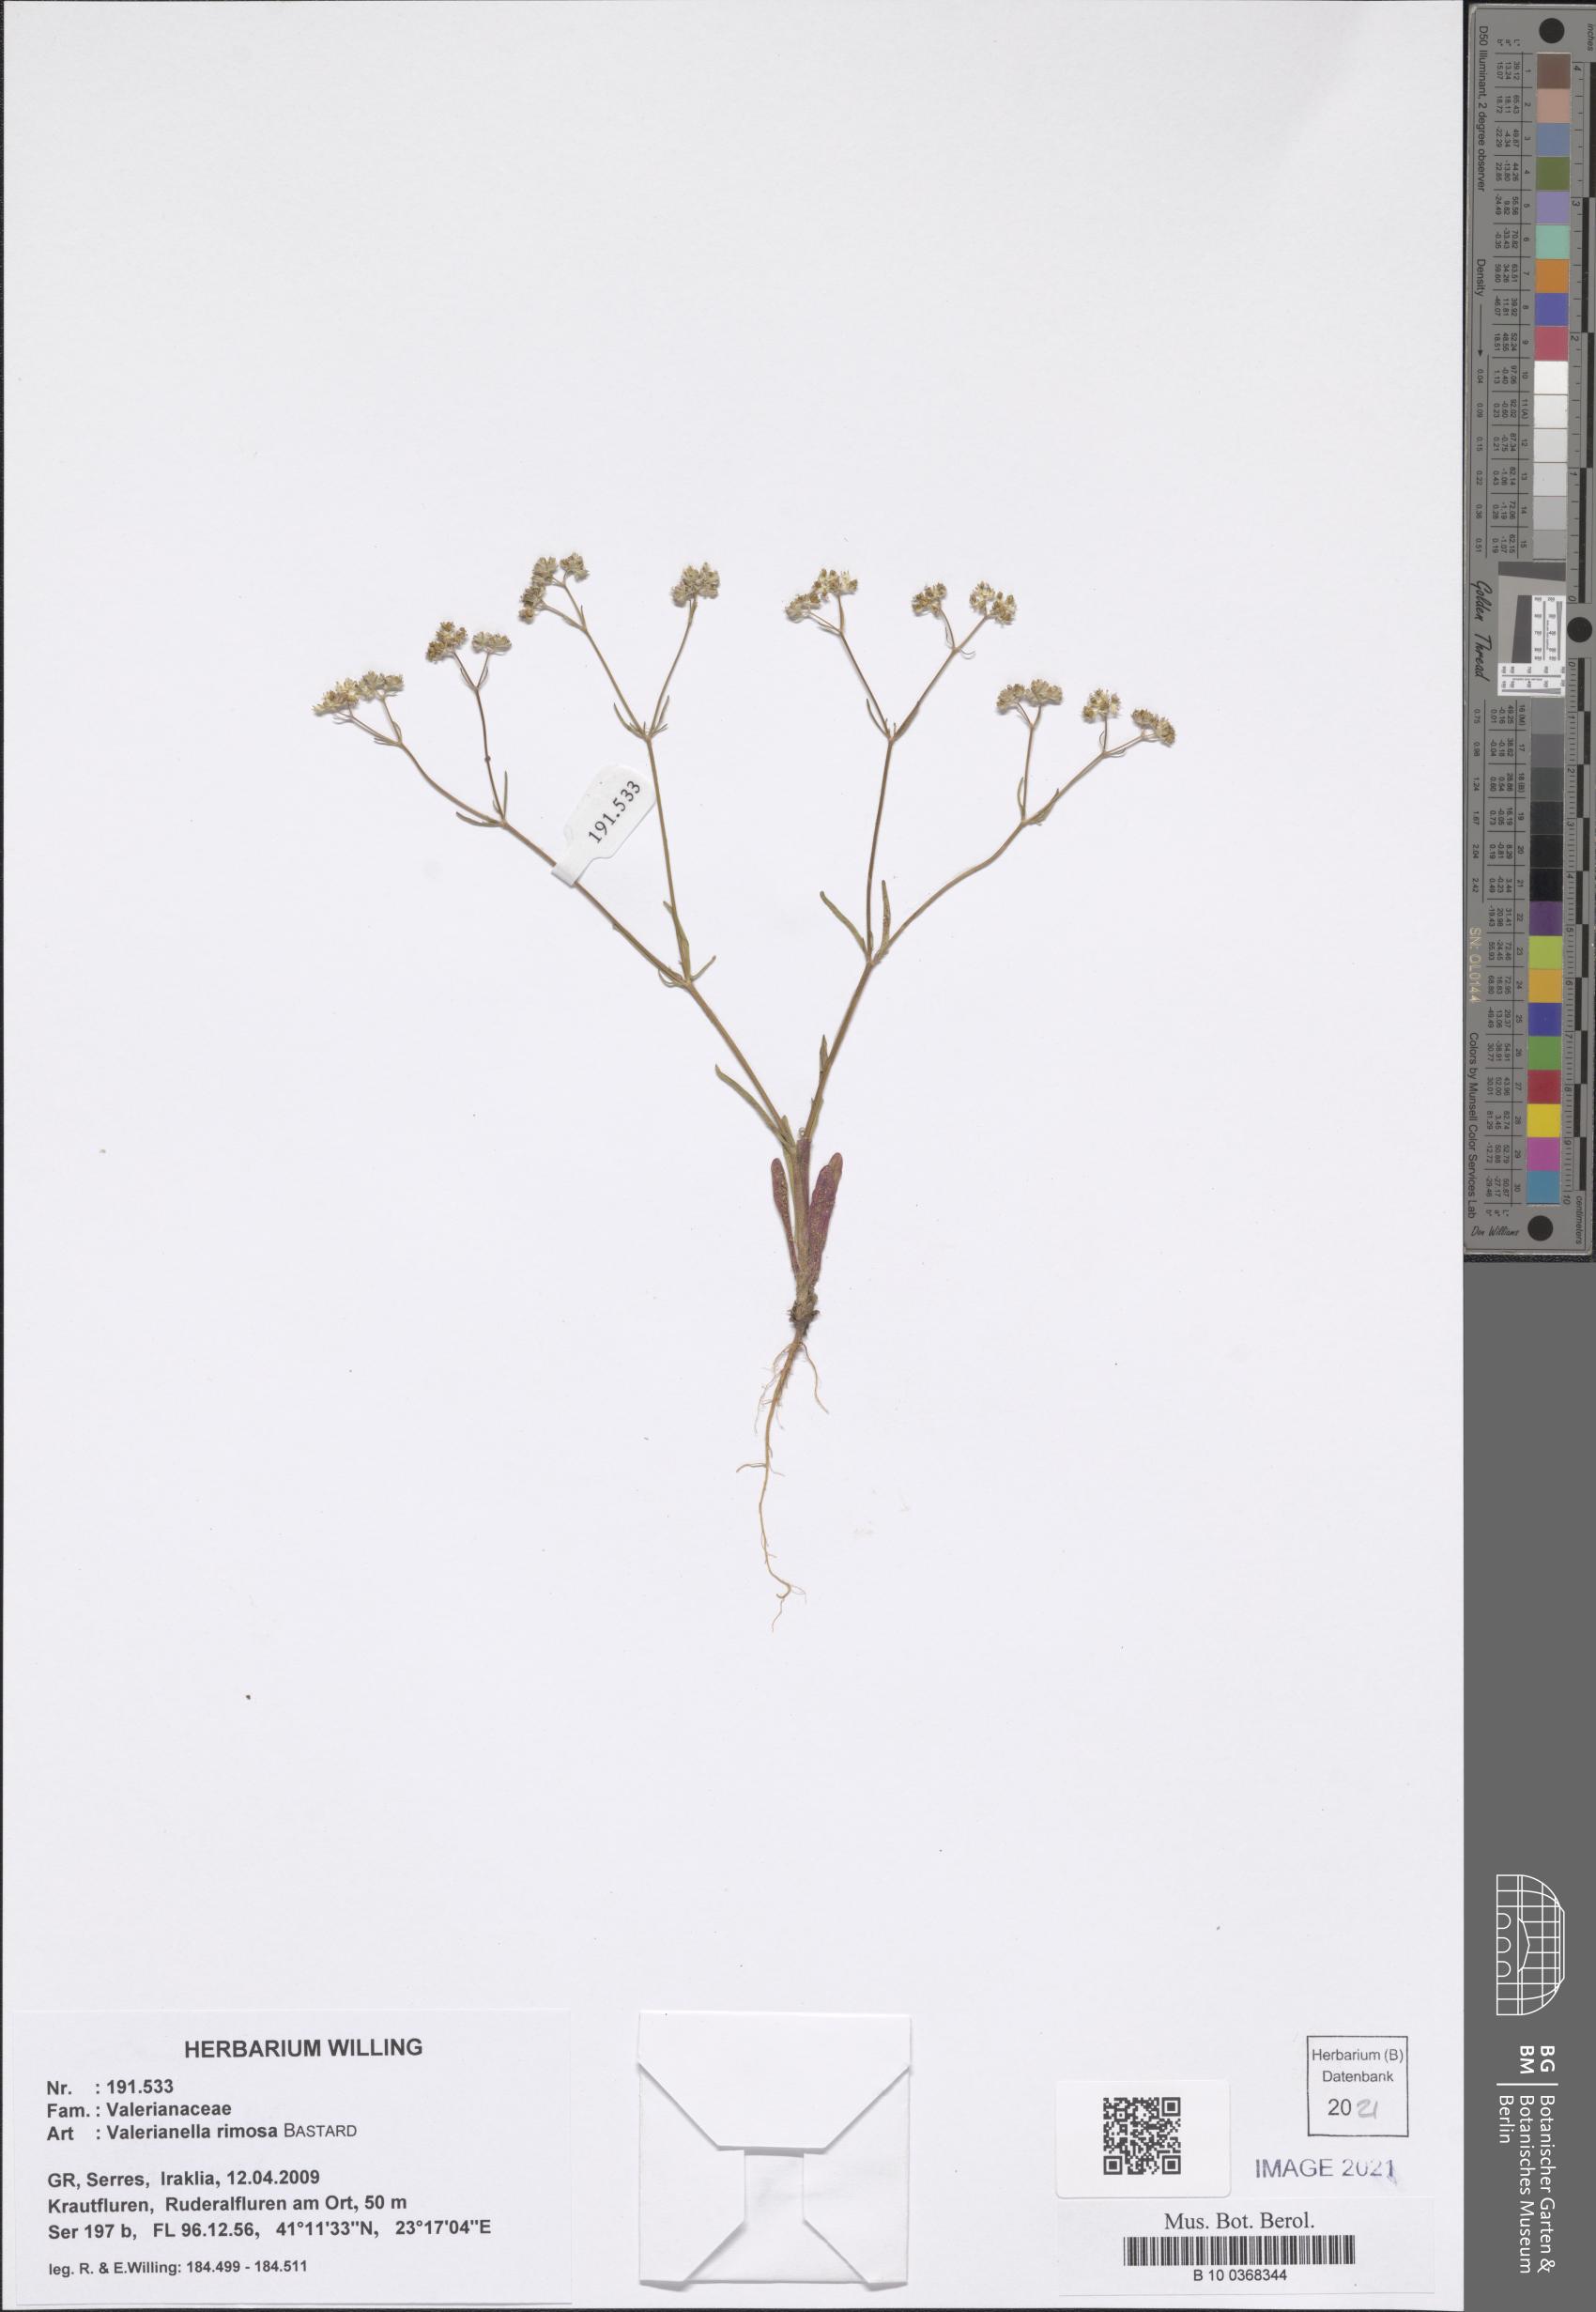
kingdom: Plantae
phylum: Tracheophyta
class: Magnoliopsida
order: Dipsacales
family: Caprifoliaceae
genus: Valerianella
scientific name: Valerianella rimosa
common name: Broad-fruited cornsalad
